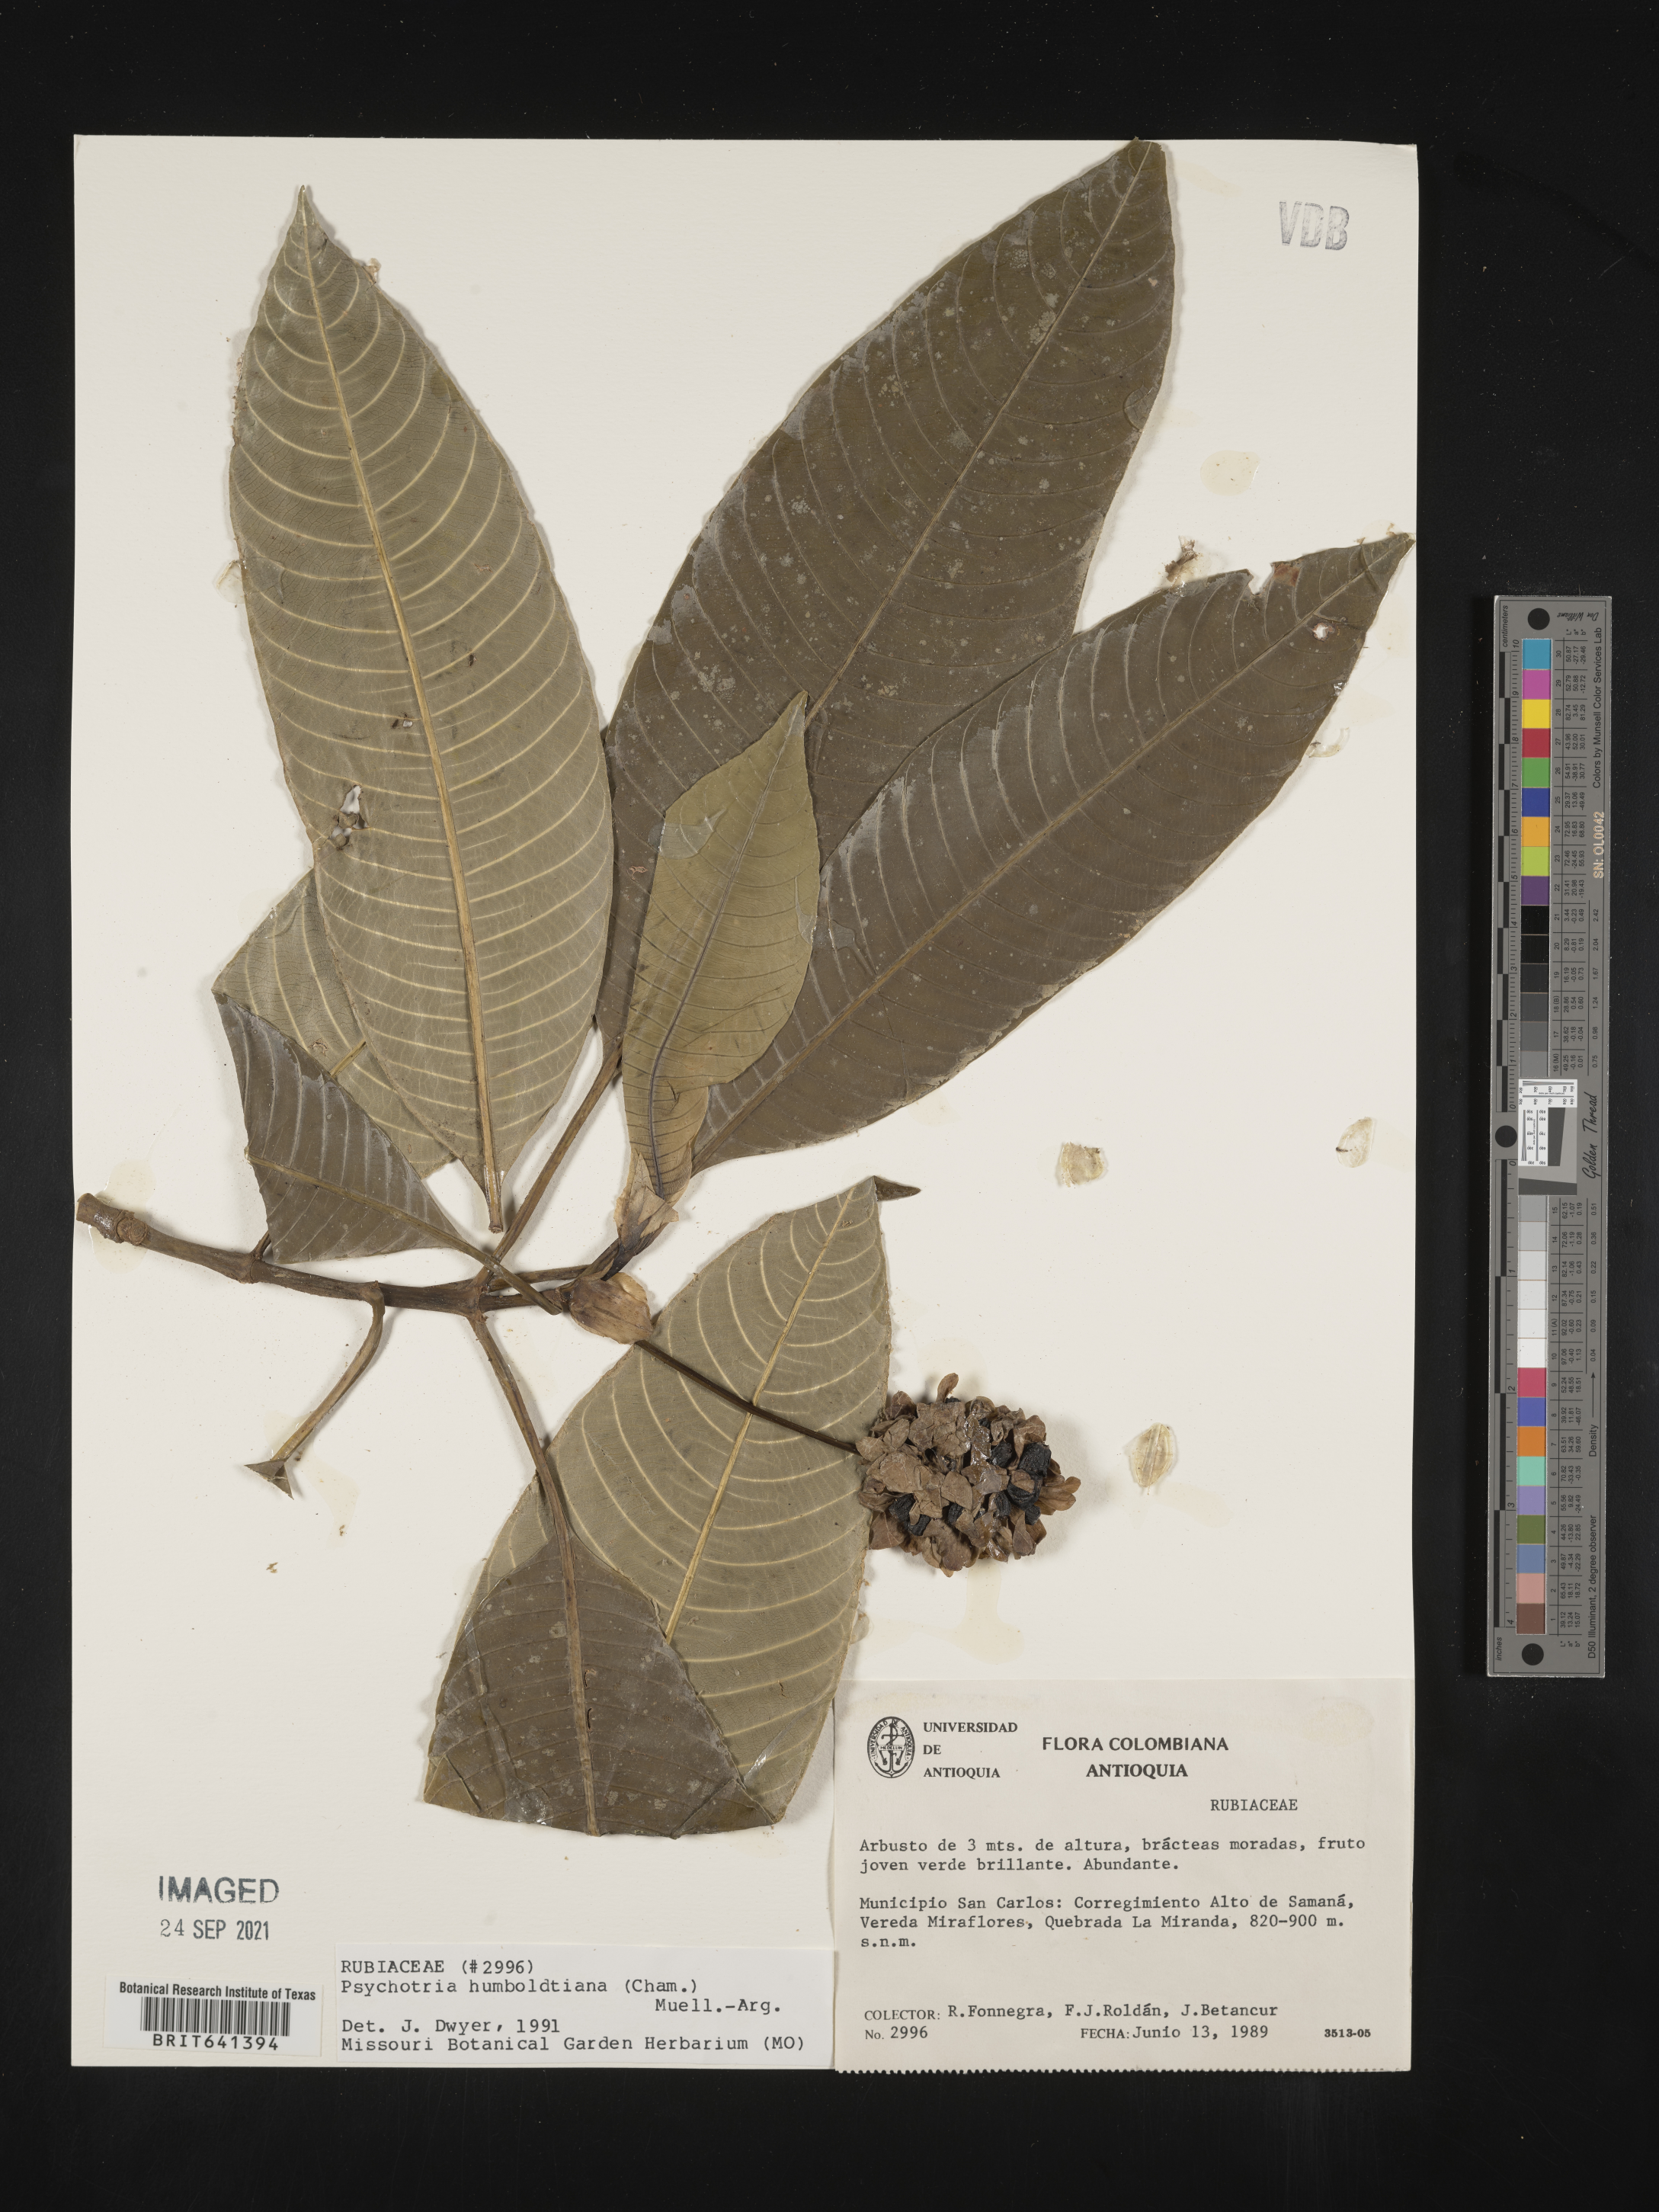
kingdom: Plantae
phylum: Tracheophyta
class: Magnoliopsida
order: Gentianales
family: Rubiaceae
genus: Psychotria
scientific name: Psychotria
